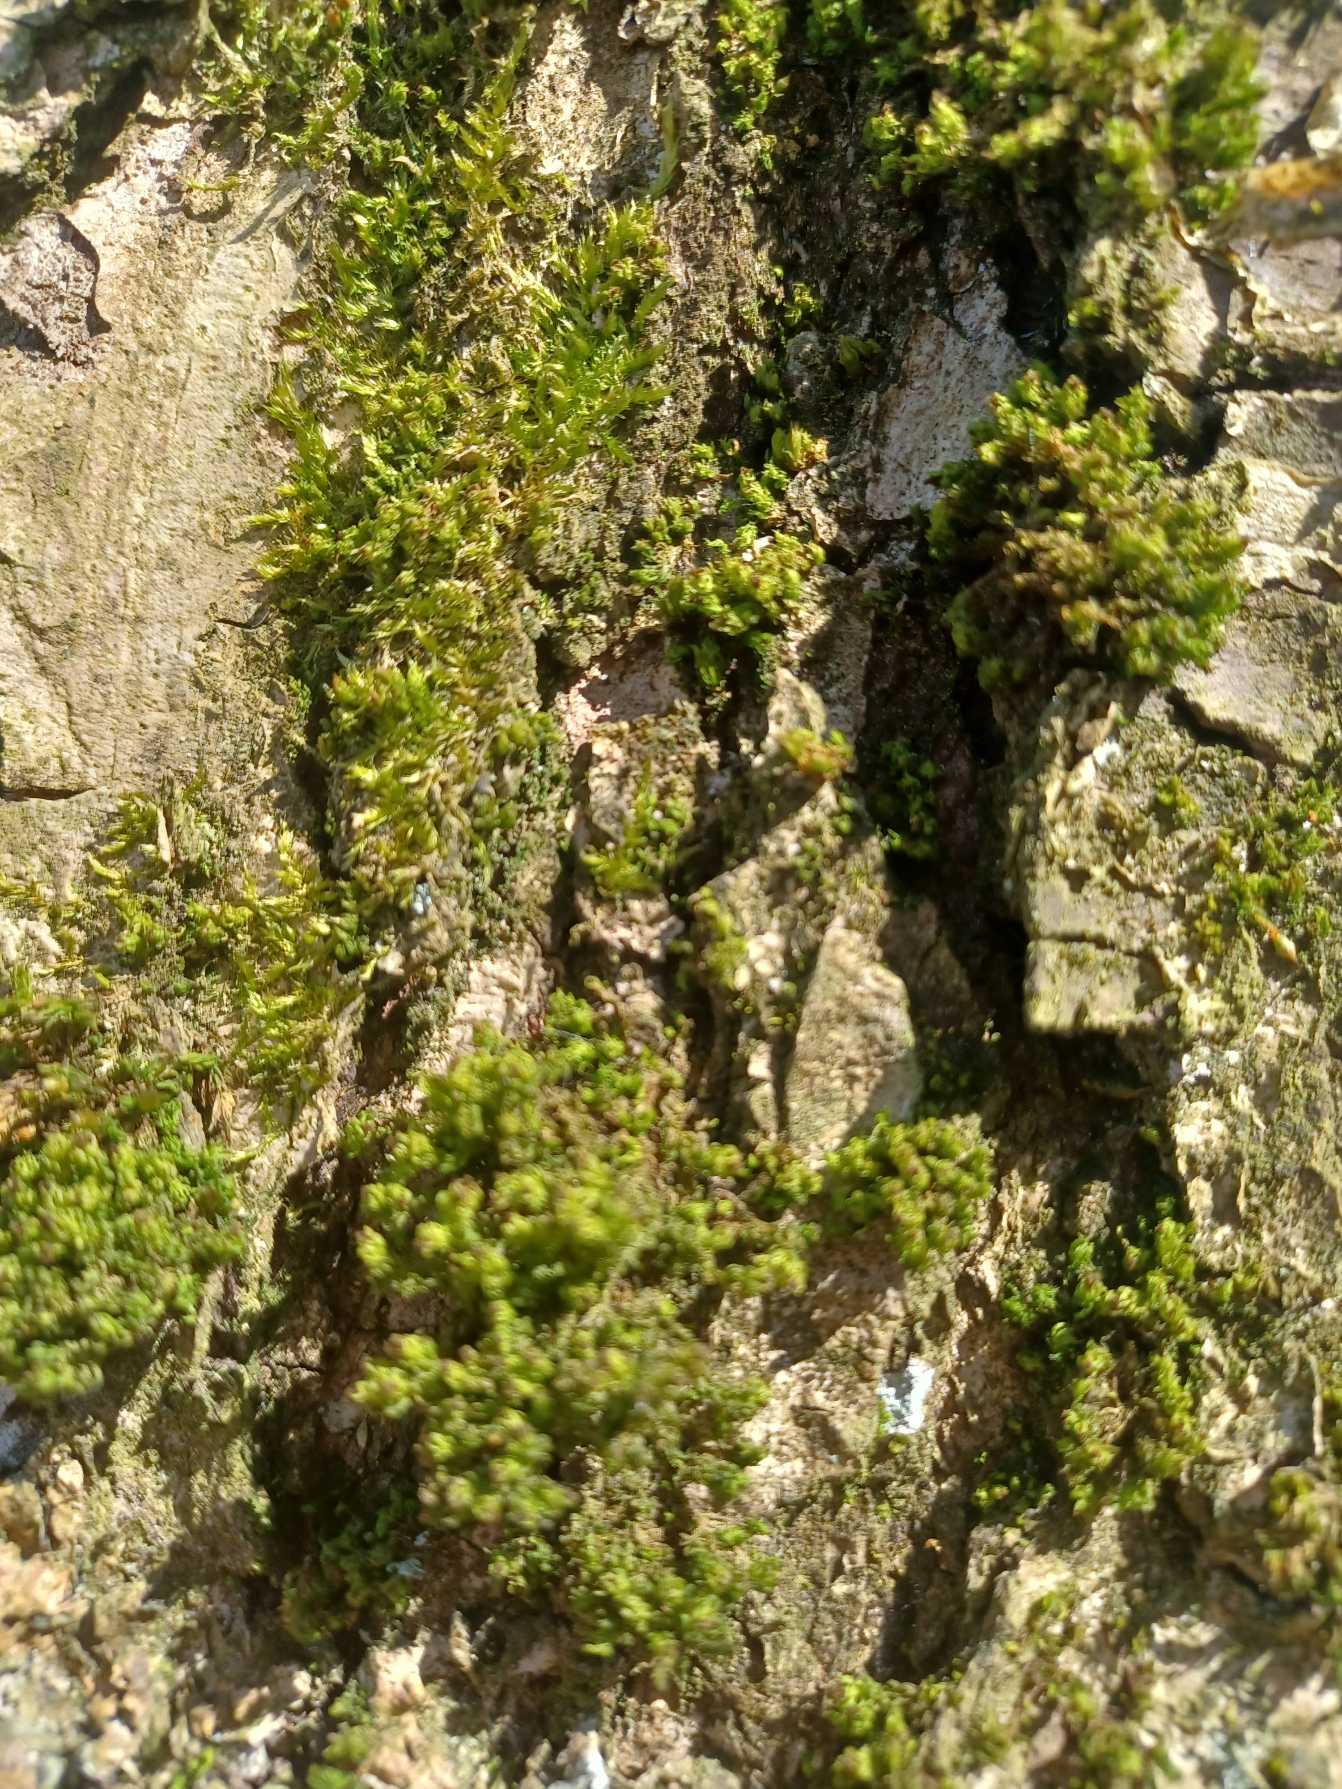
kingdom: Plantae
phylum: Bryophyta
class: Bryopsida
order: Orthotrichales
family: Orthotrichaceae
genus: Plenogemma
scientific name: Plenogemma phyllantha
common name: Stor låddenhætte
